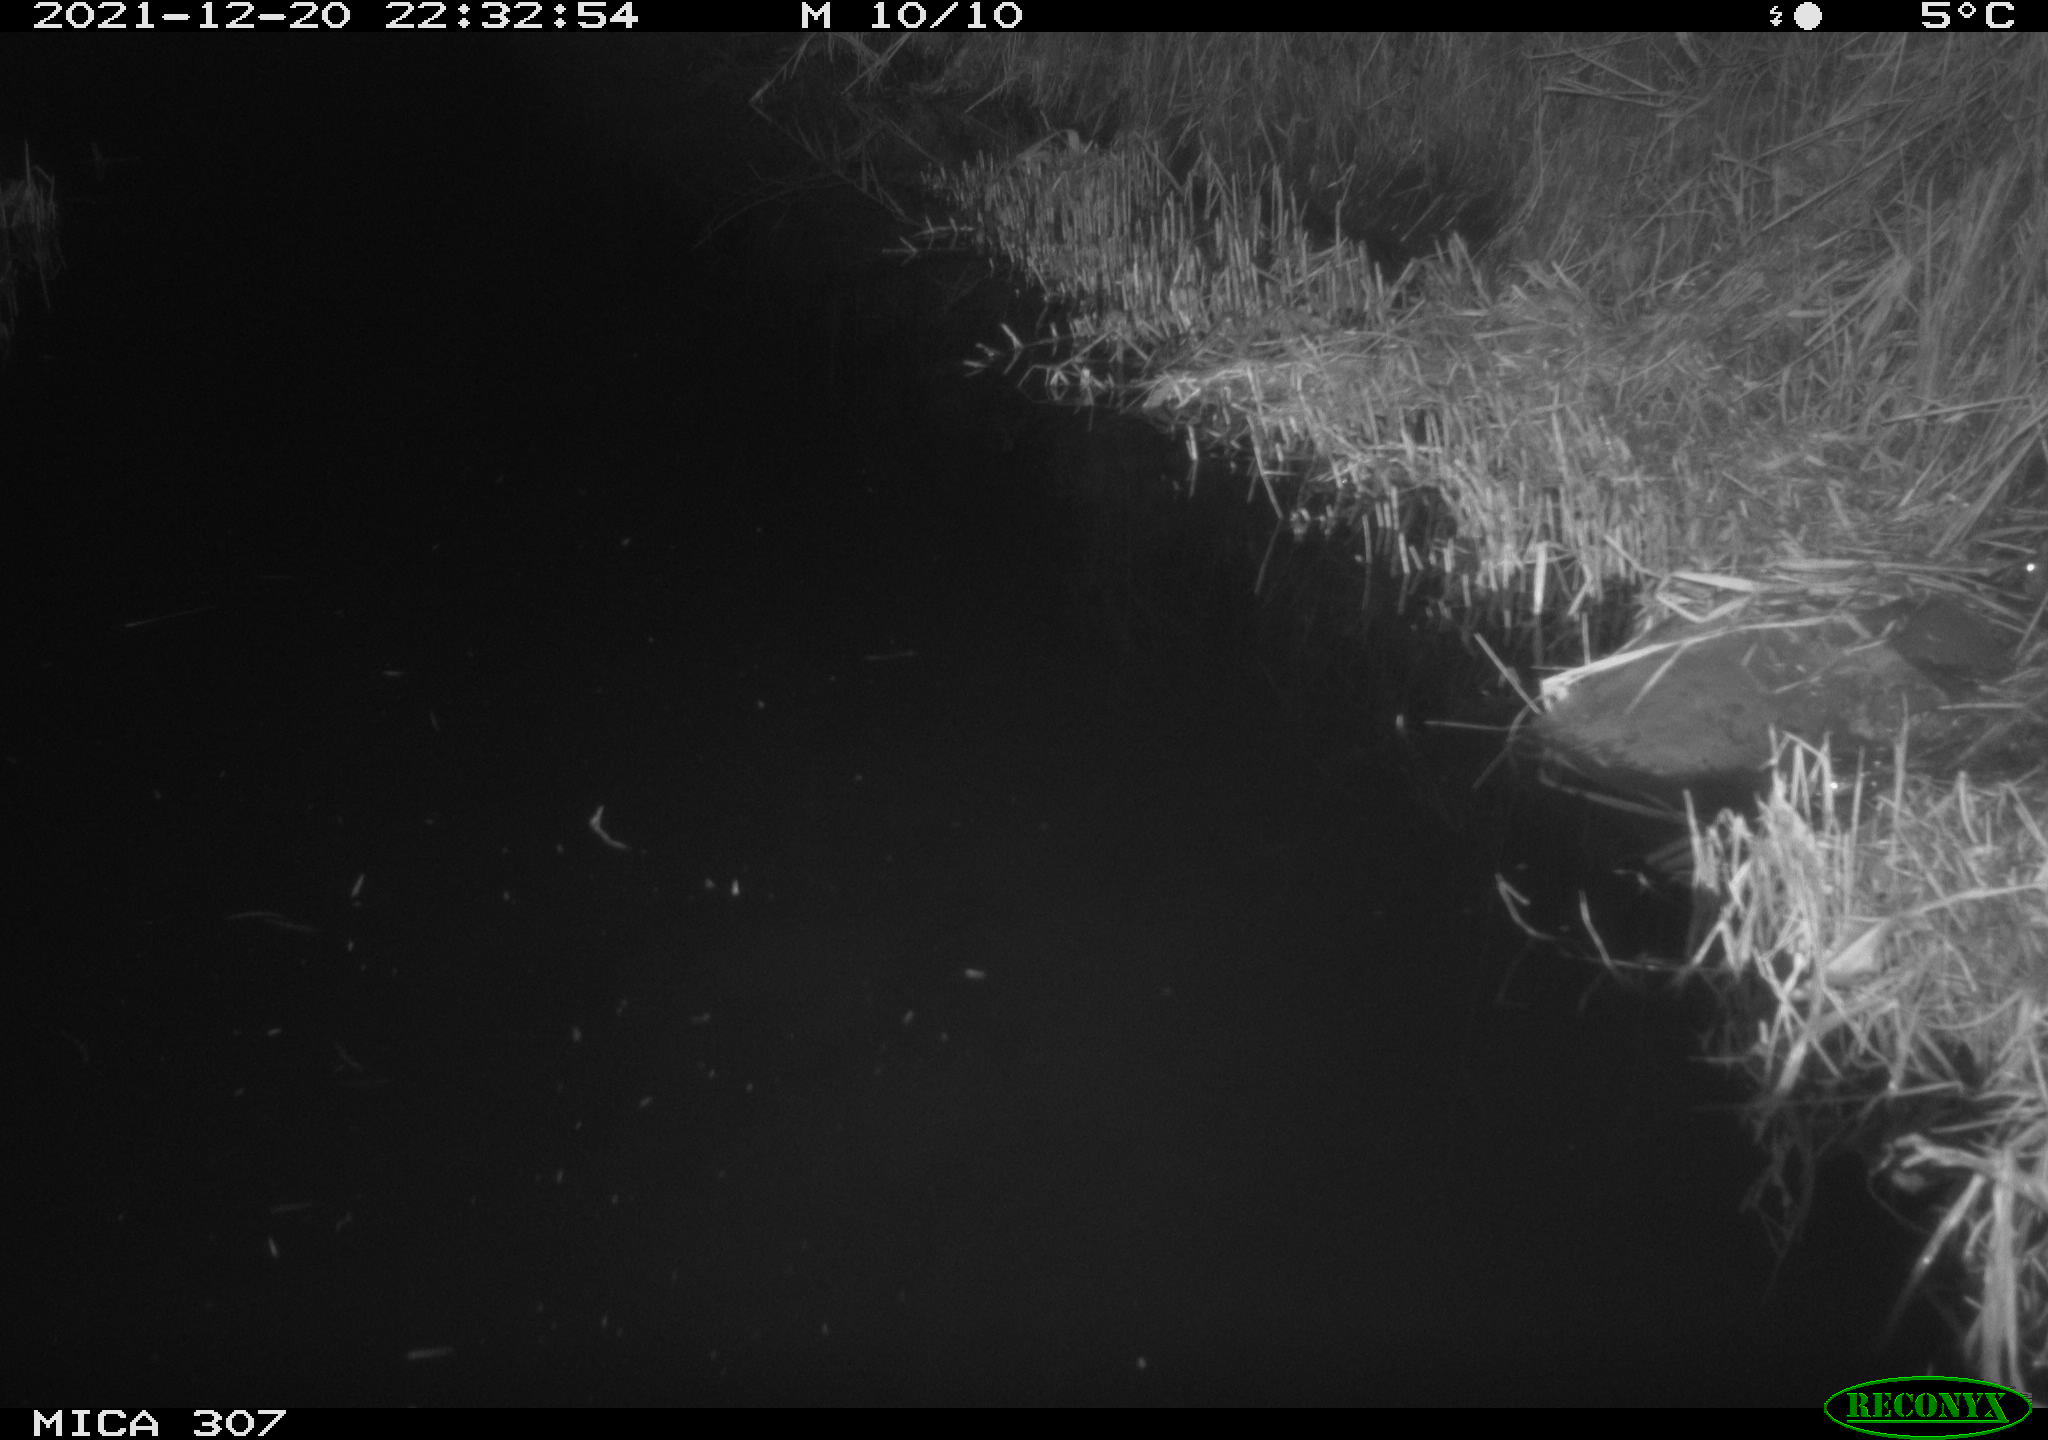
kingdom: Animalia
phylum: Chordata
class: Mammalia
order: Rodentia
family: Muridae
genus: Rattus
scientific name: Rattus norvegicus
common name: Brown rat
